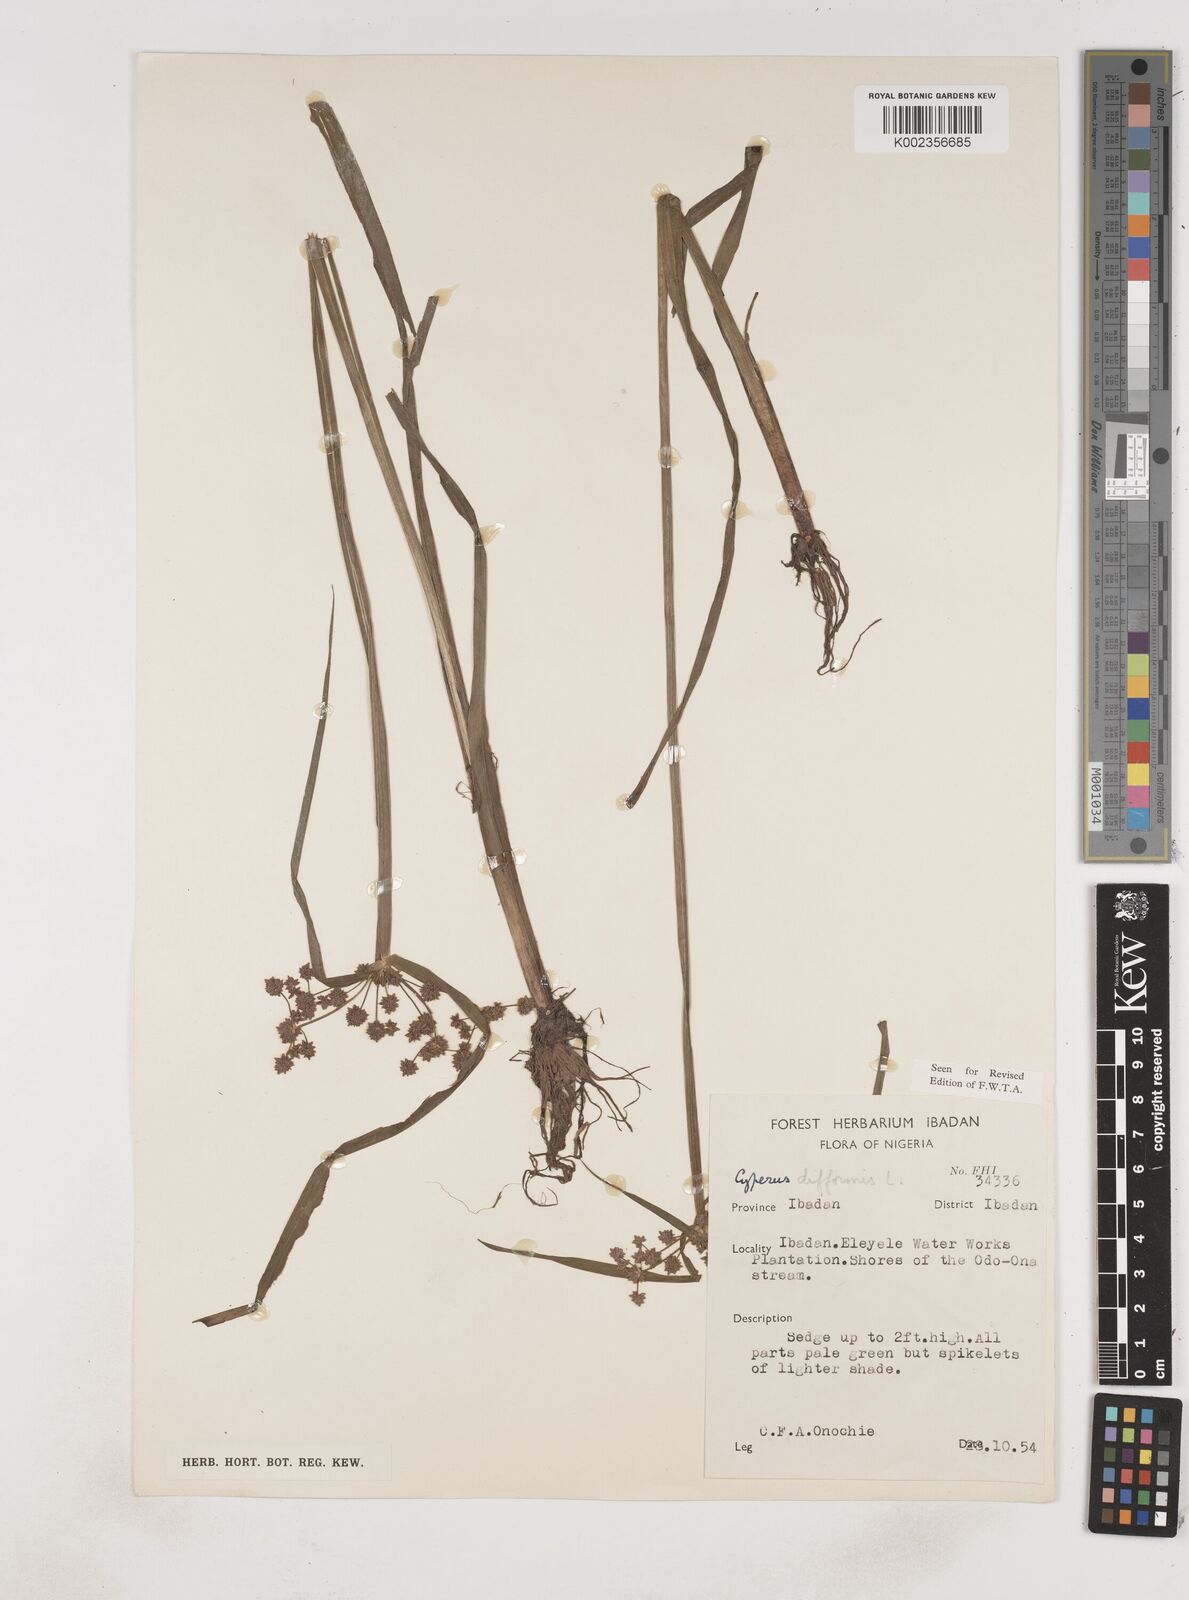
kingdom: Plantae
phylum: Tracheophyta
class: Liliopsida
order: Poales
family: Cyperaceae
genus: Cyperus
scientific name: Cyperus difformis
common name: Variable flatsedge
